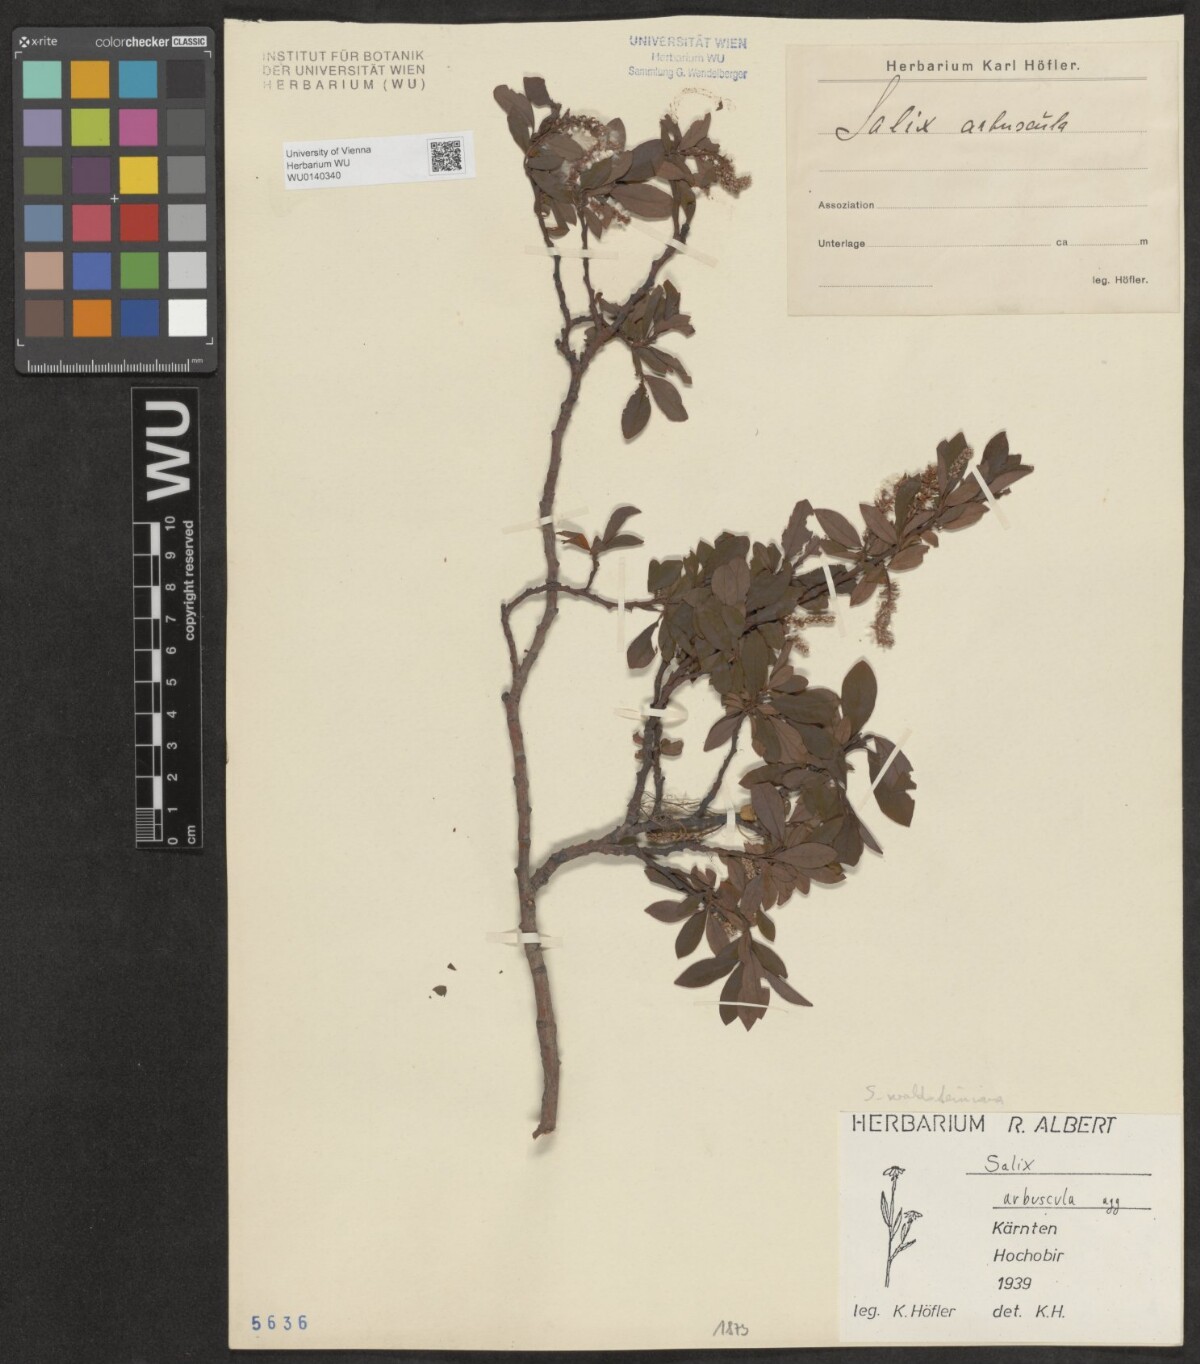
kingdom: Plantae
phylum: Tracheophyta
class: Magnoliopsida
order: Malpighiales
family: Salicaceae
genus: Salix
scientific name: Salix waldsteiniana
